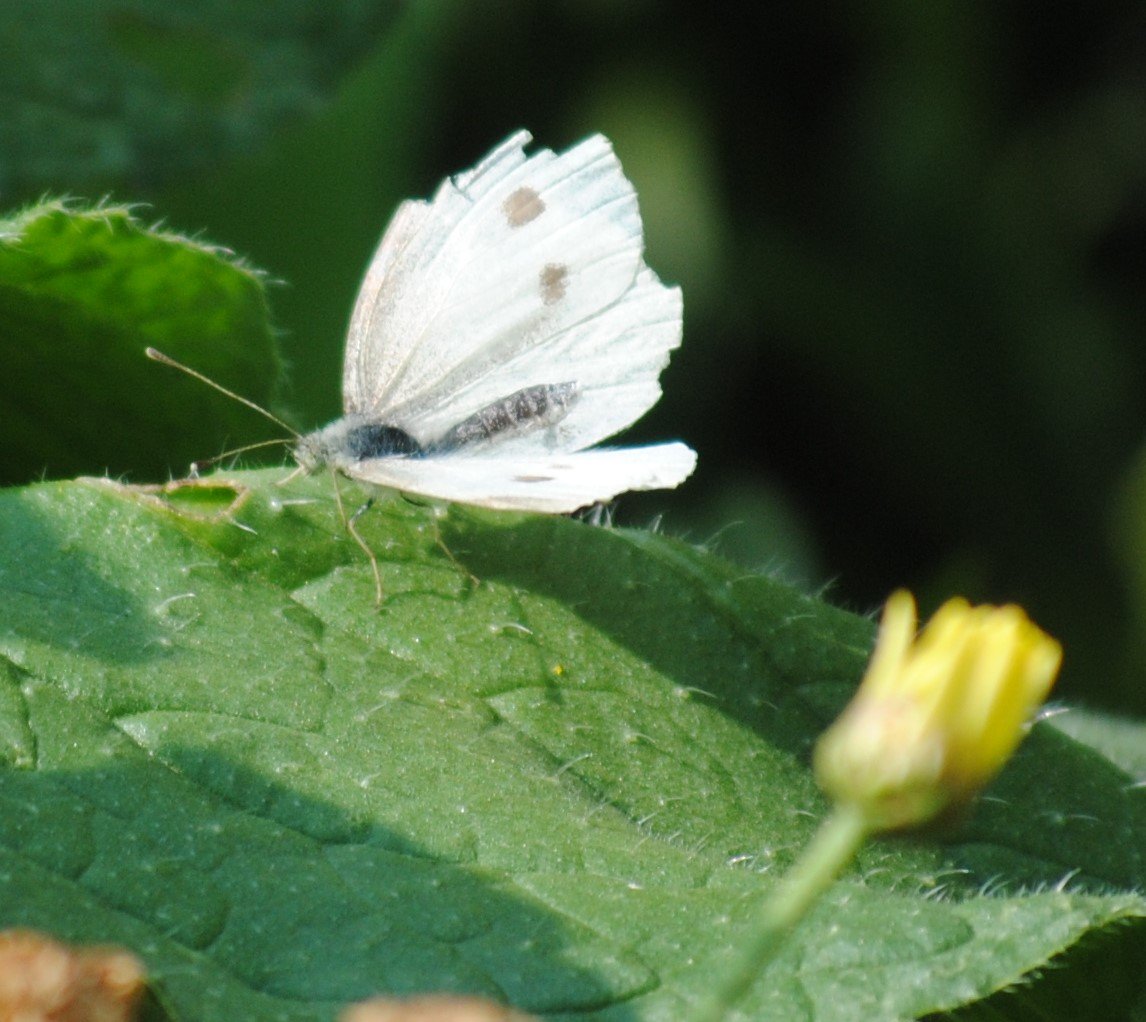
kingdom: Animalia
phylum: Arthropoda
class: Insecta
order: Lepidoptera
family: Pieridae
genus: Pieris
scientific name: Pieris rapae
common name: Cabbage White
